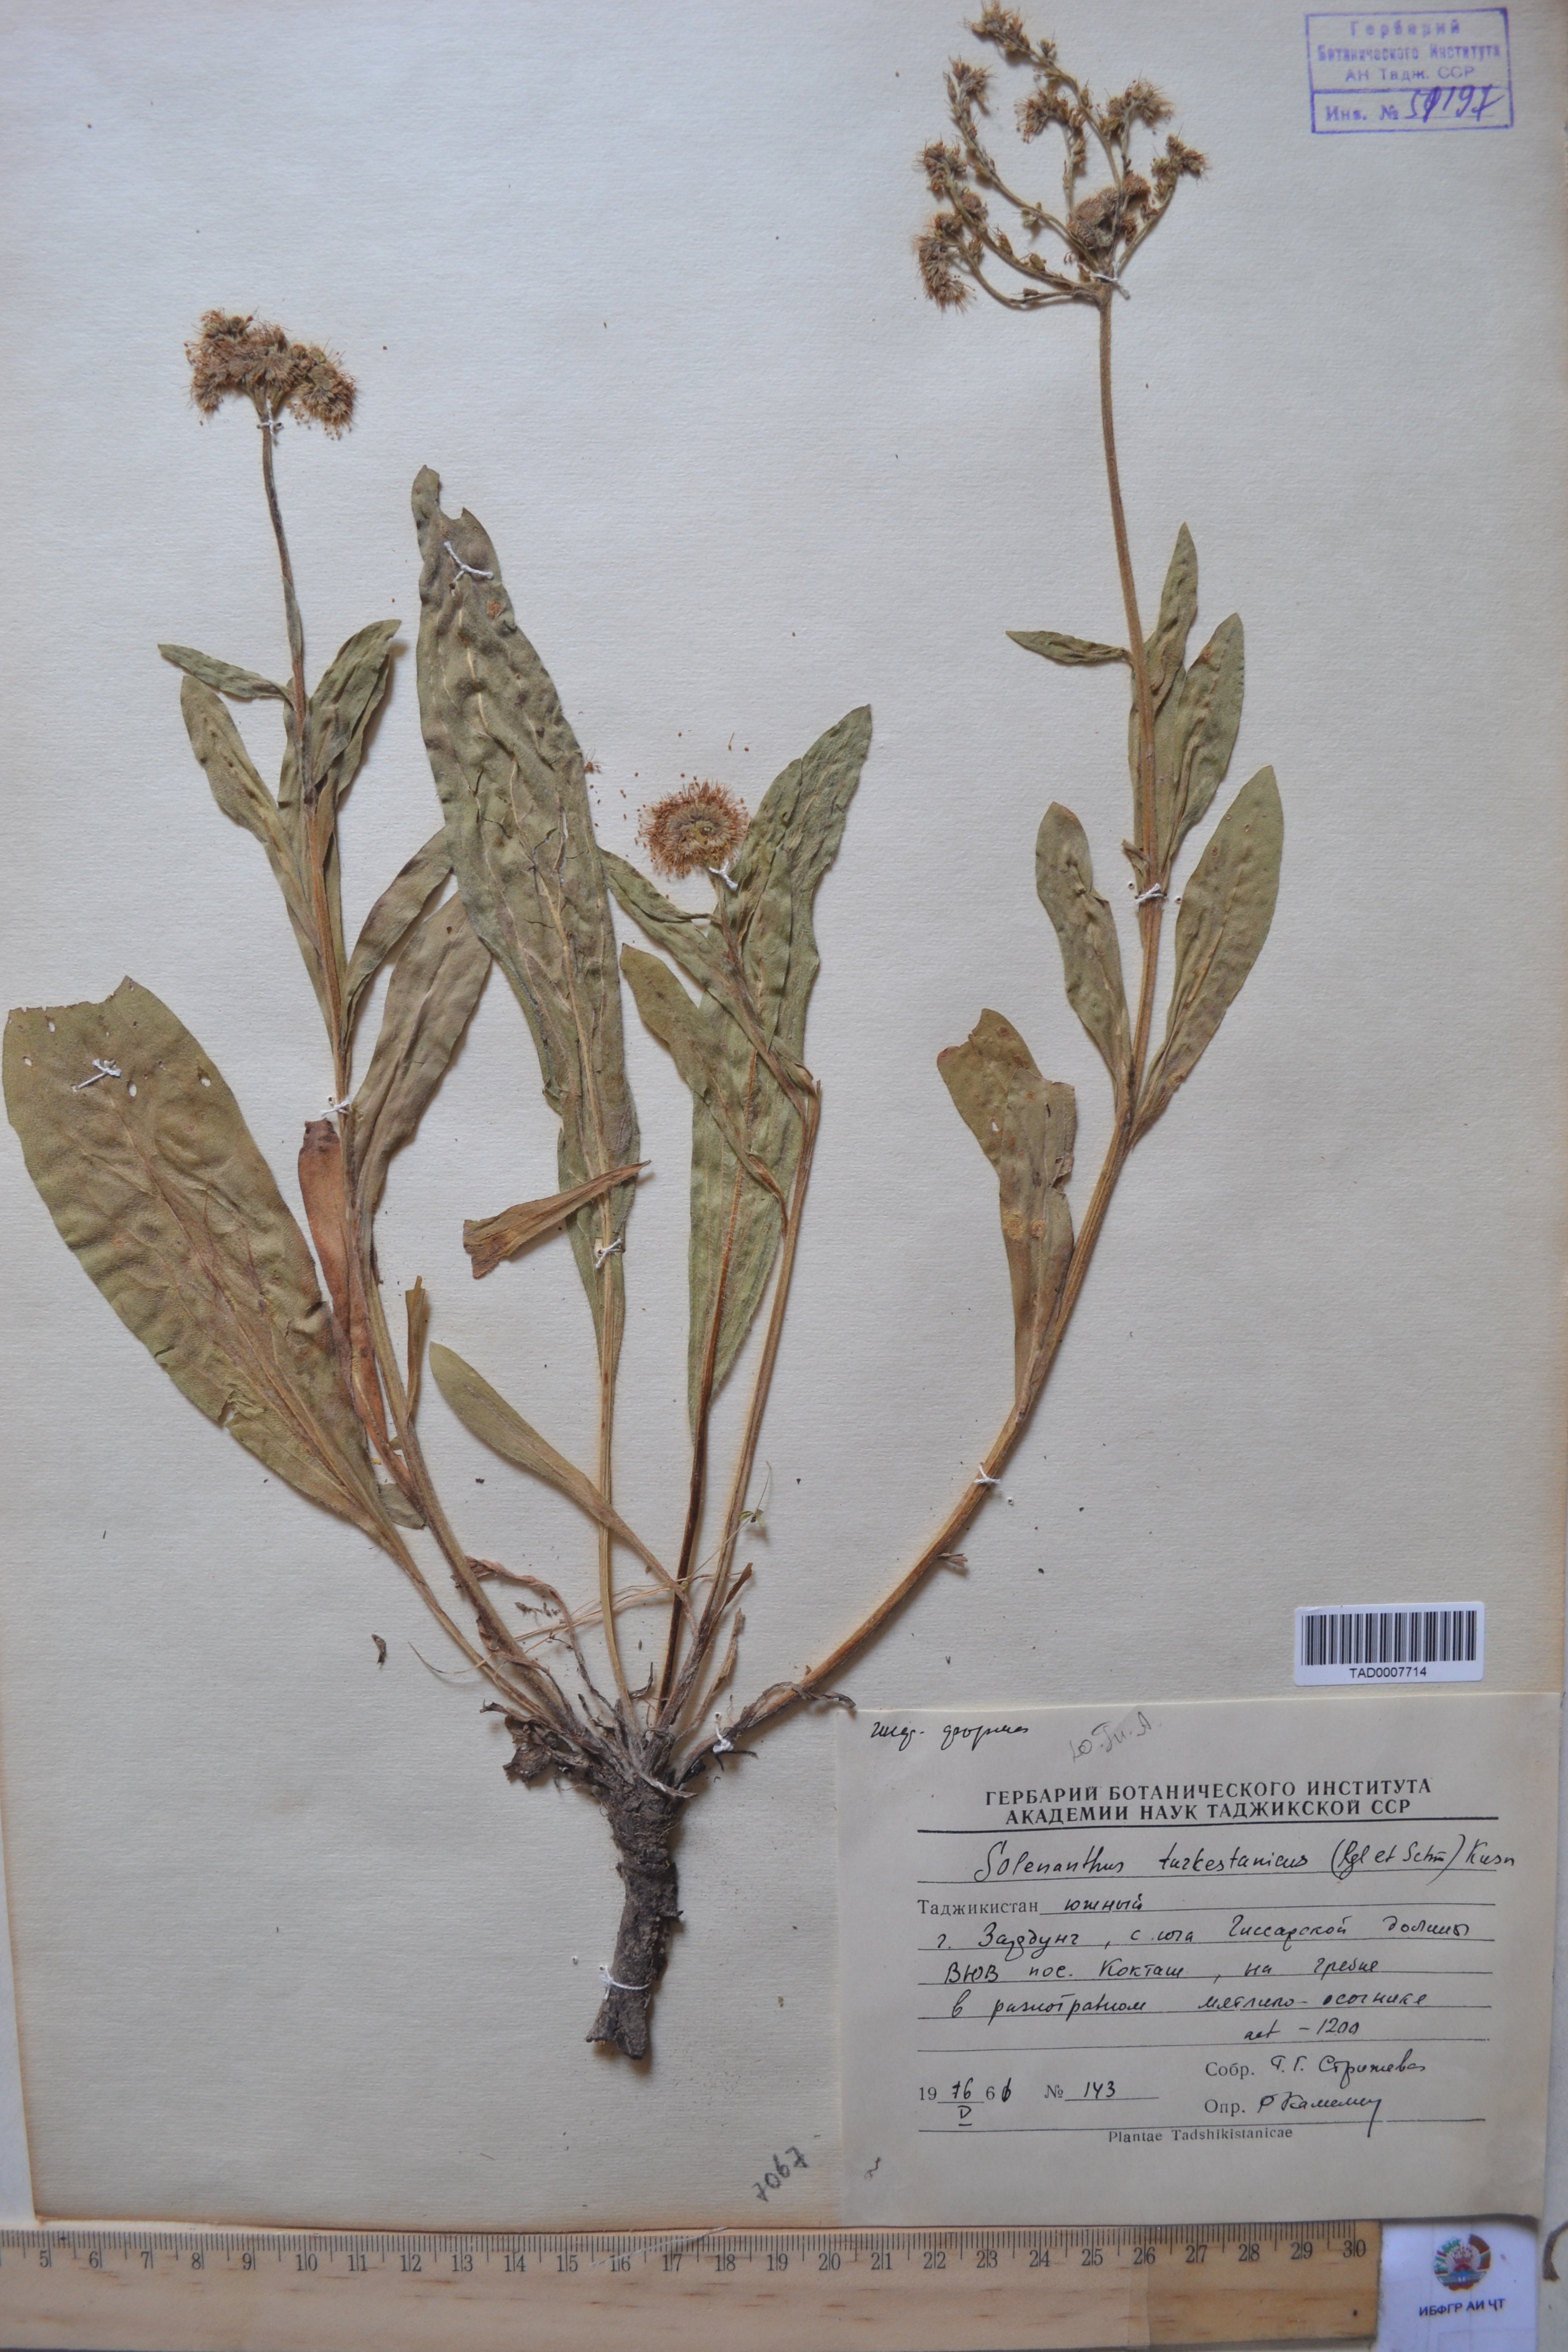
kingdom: Plantae
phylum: Tracheophyta
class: Magnoliopsida
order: Boraginales
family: Boraginaceae
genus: Solenanthus
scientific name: Solenanthus turkestanicus
